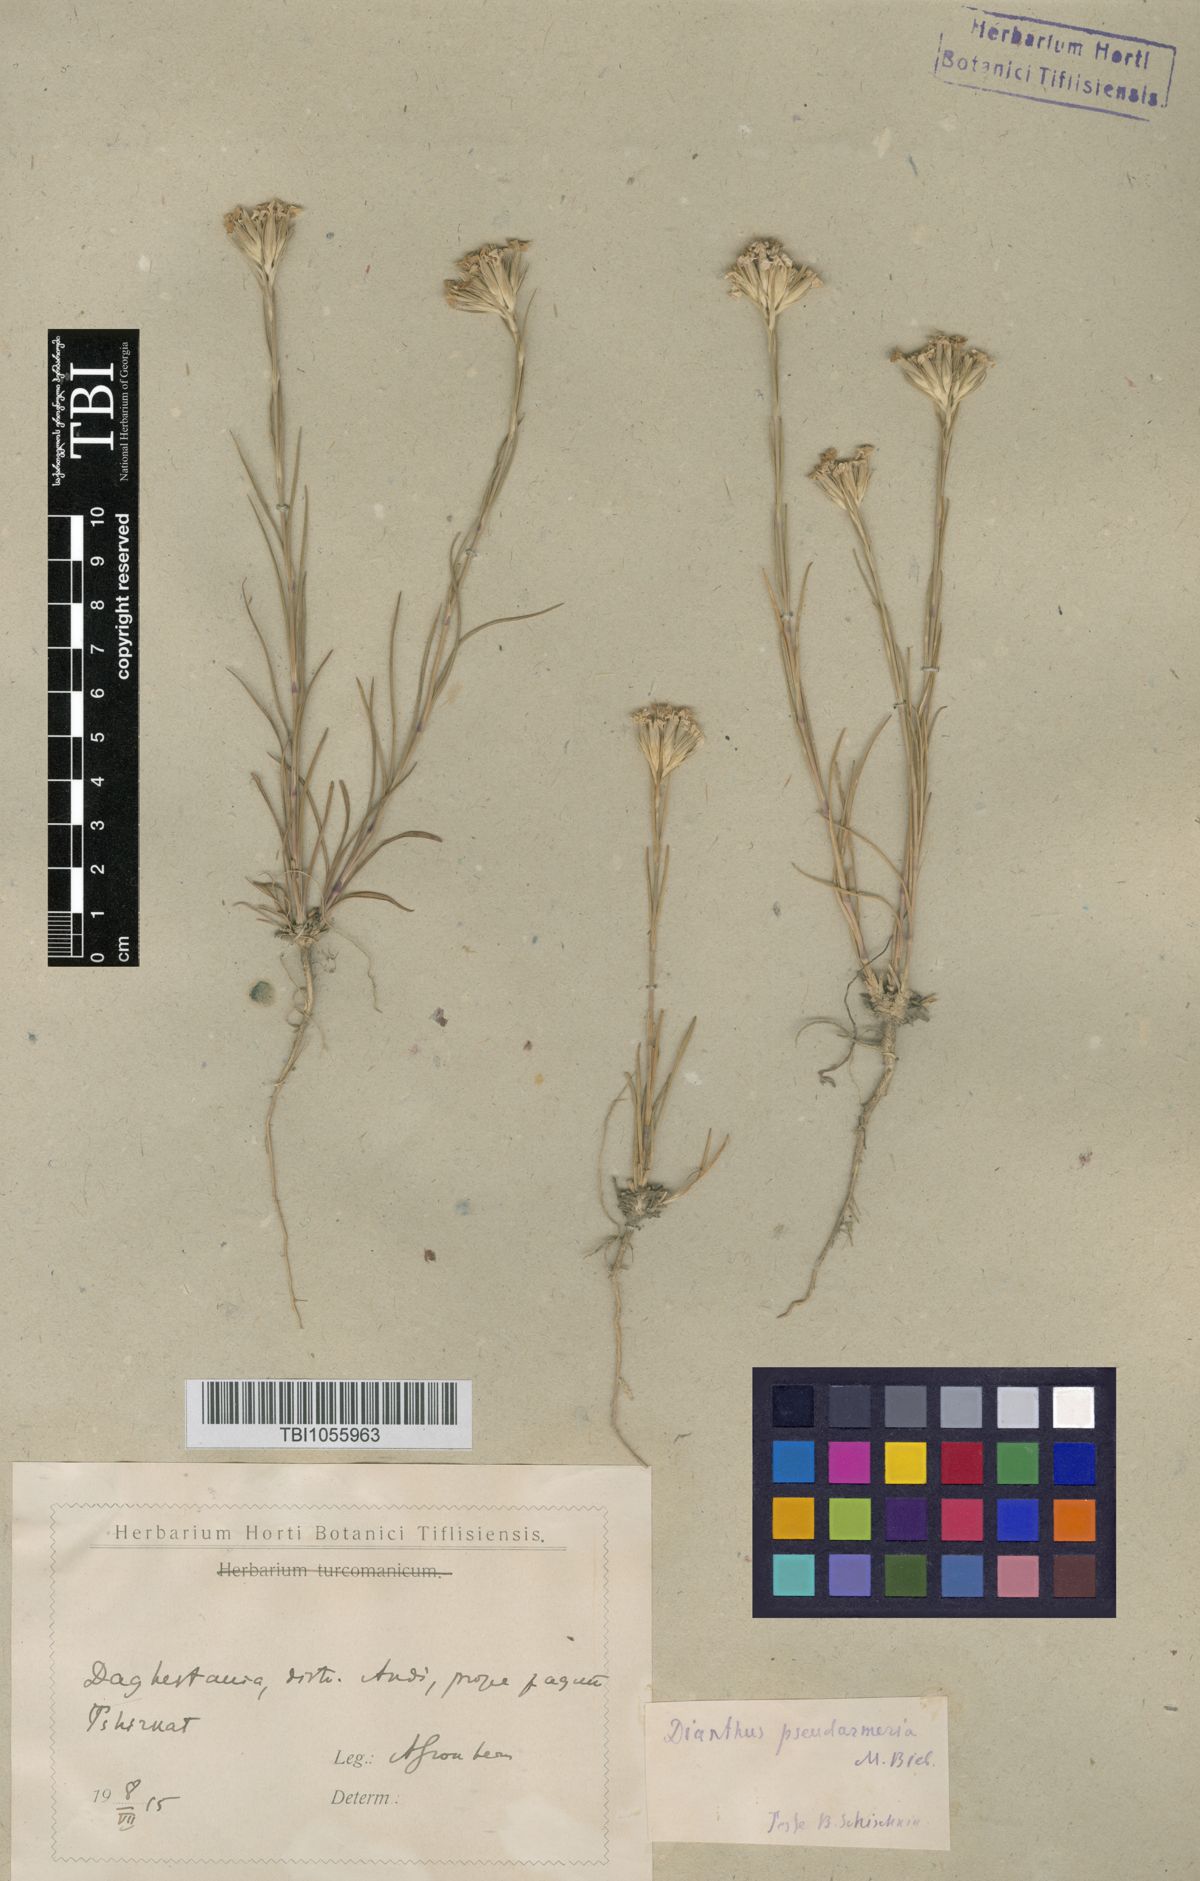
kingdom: Plantae
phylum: Tracheophyta
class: Magnoliopsida
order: Caryophyllales
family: Caryophyllaceae
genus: Dianthus
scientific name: Dianthus pseudarmeria
